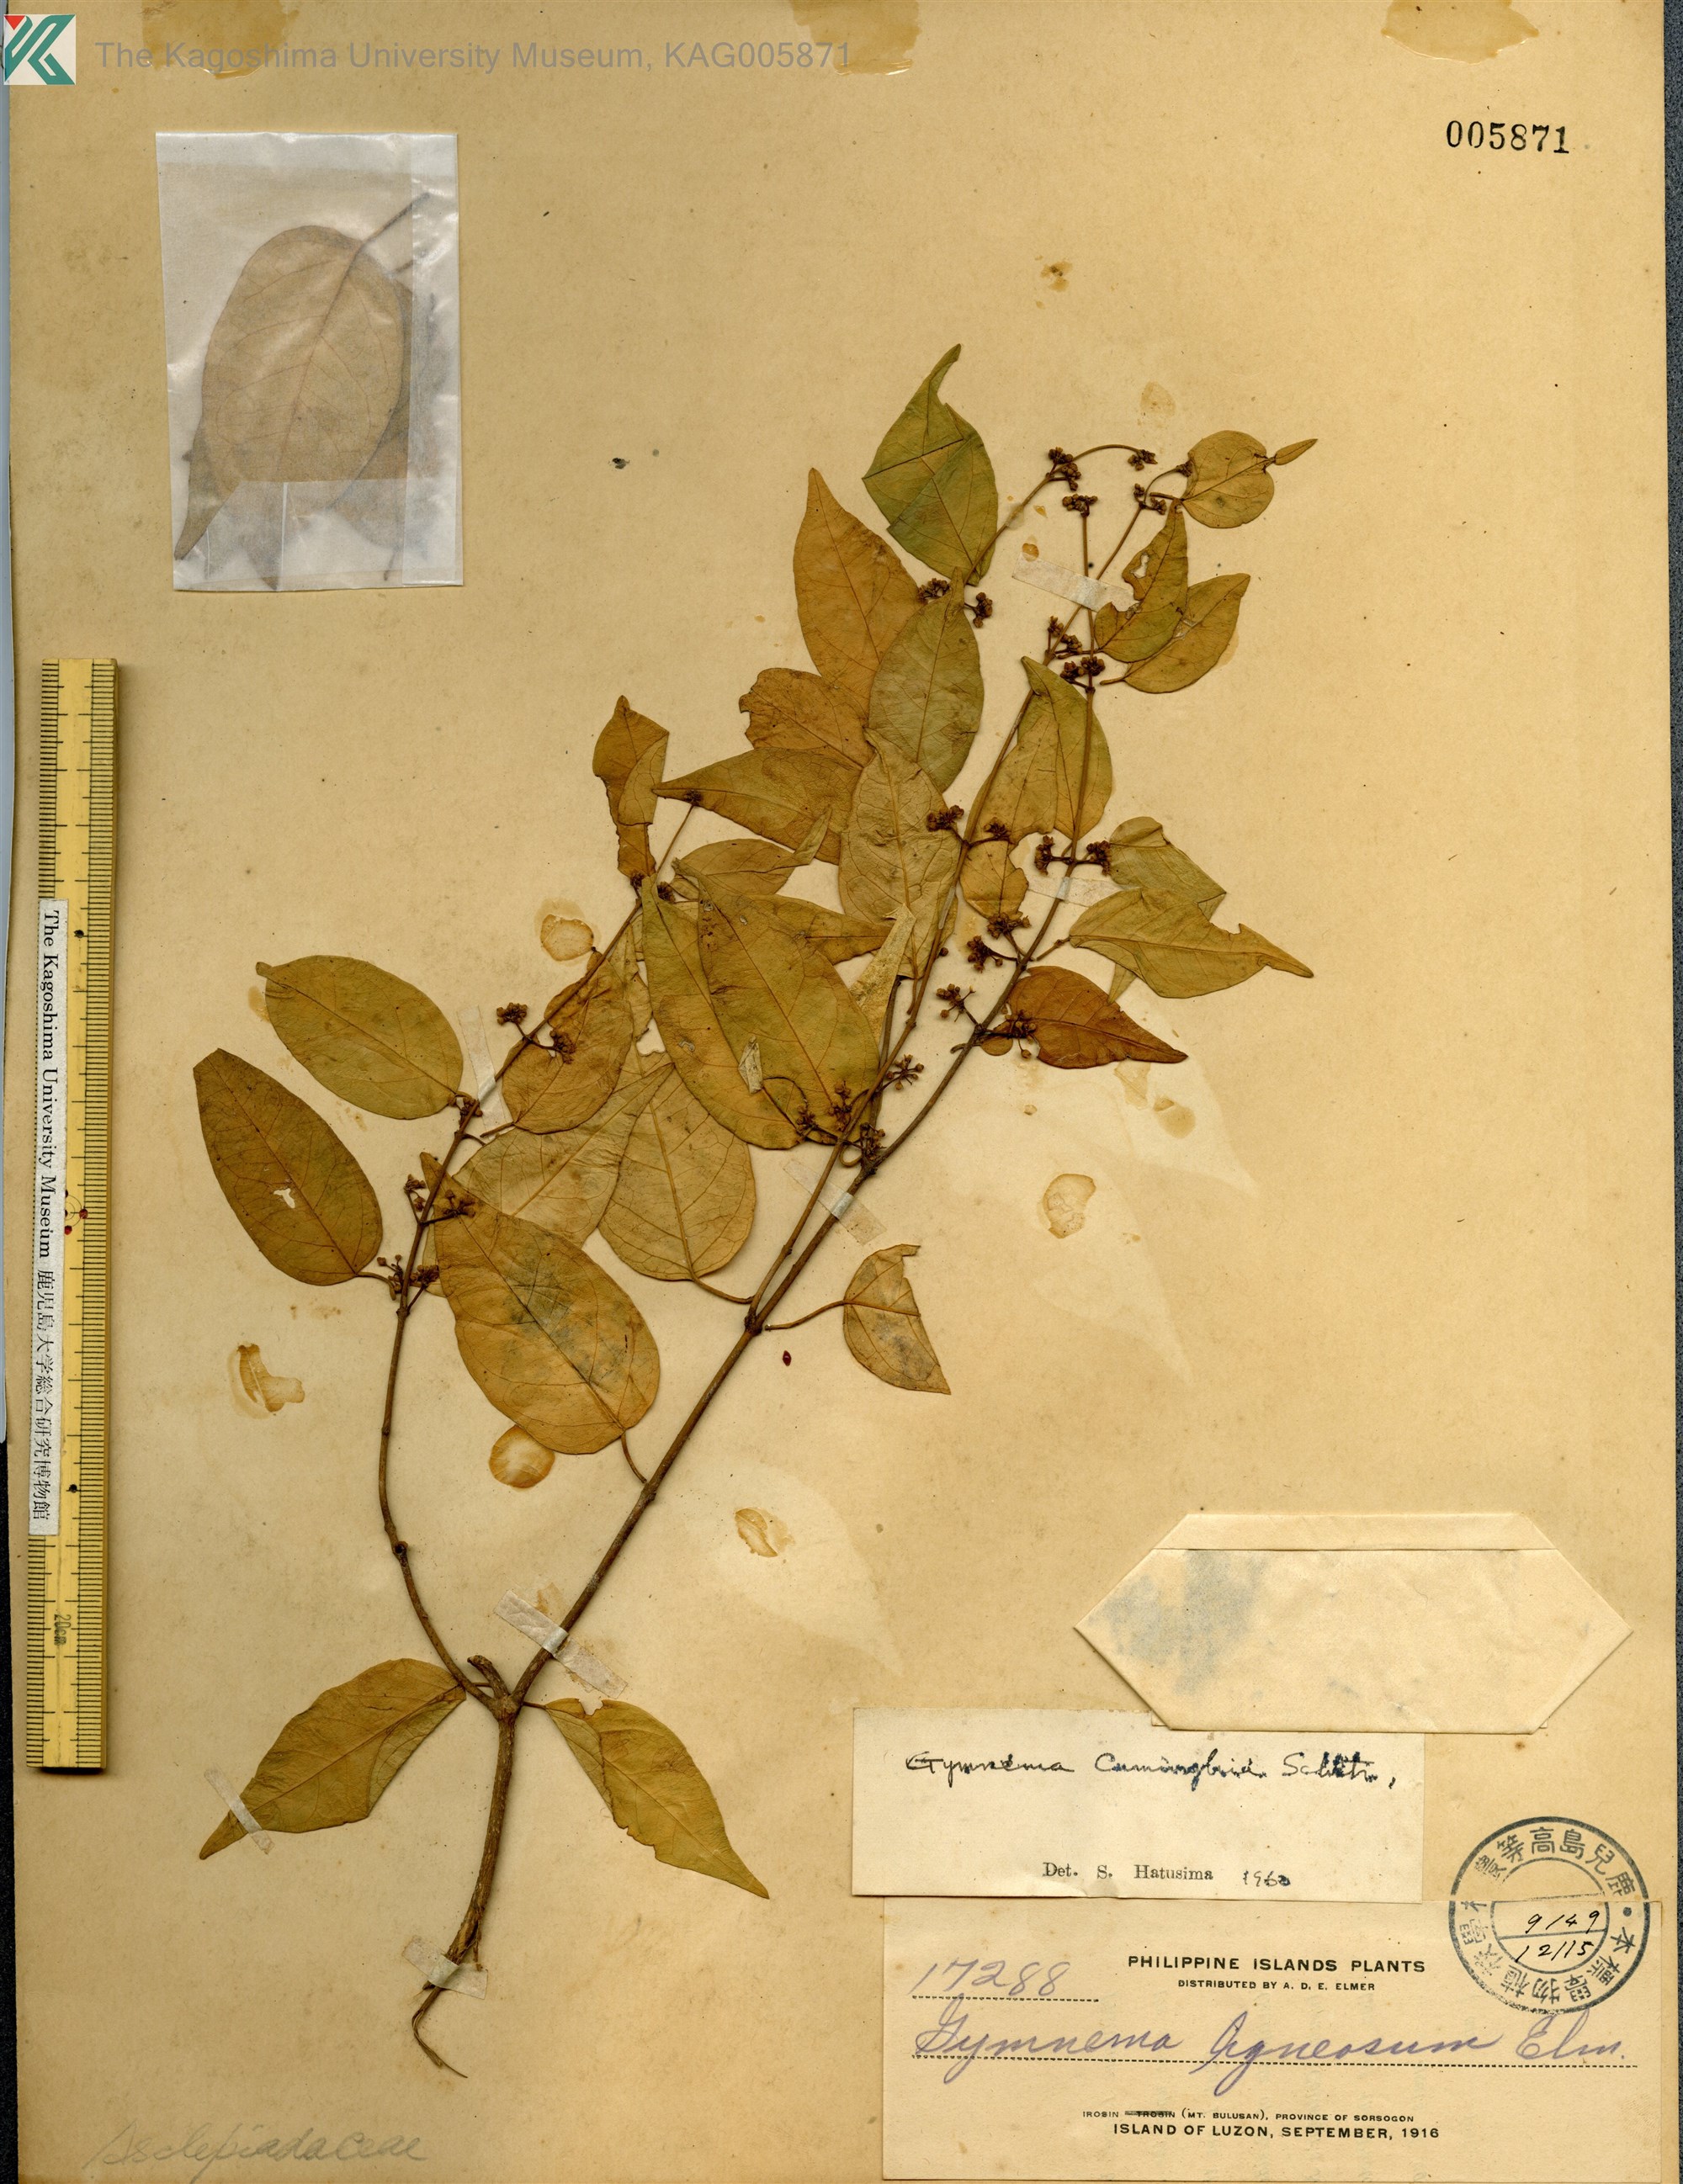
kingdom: Plantae
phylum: Tracheophyta
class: Magnoliopsida
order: Gentianales
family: Apocynaceae
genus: Gymnema
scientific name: Gymnema cumingii
